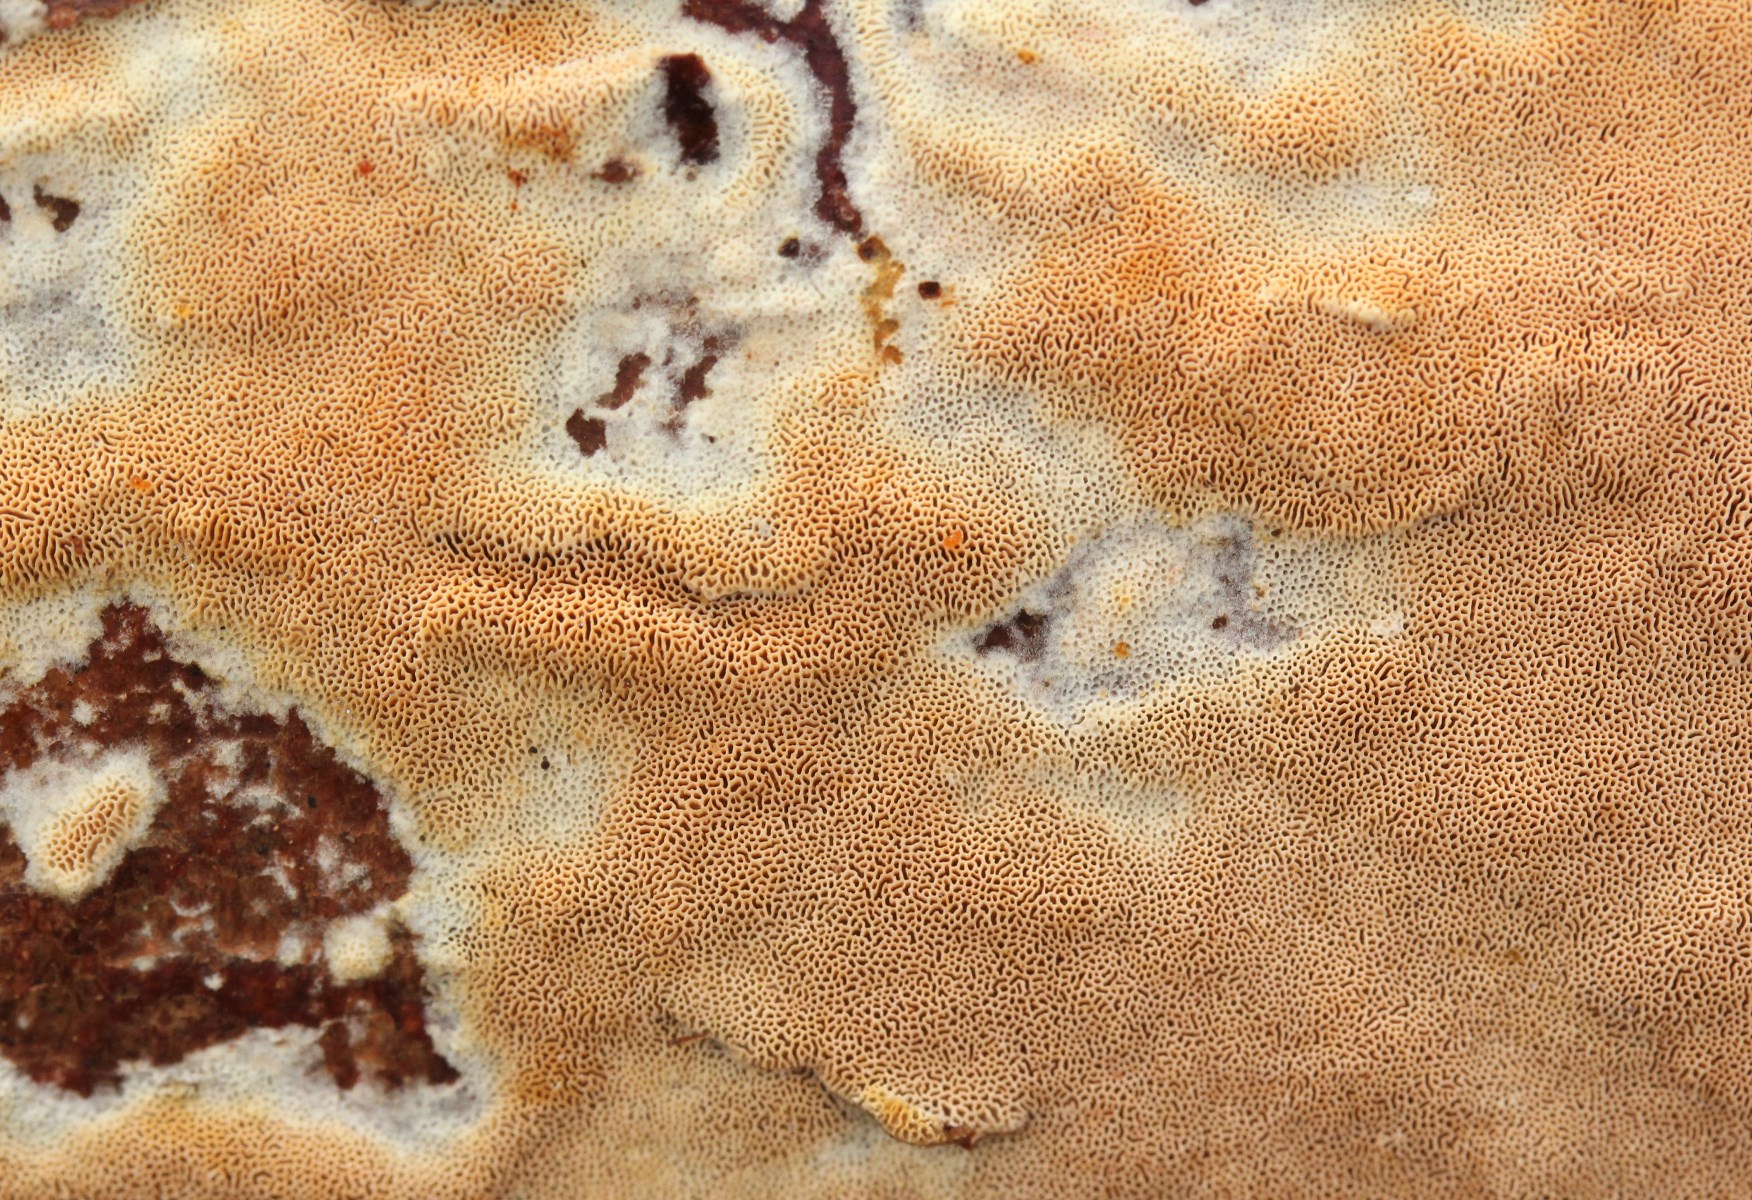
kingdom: Fungi
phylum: Basidiomycota
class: Agaricomycetes
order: Hymenochaetales
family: Schizoporaceae
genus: Xylodon
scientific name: Xylodon flaviporus
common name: gulporet tandsvamp
